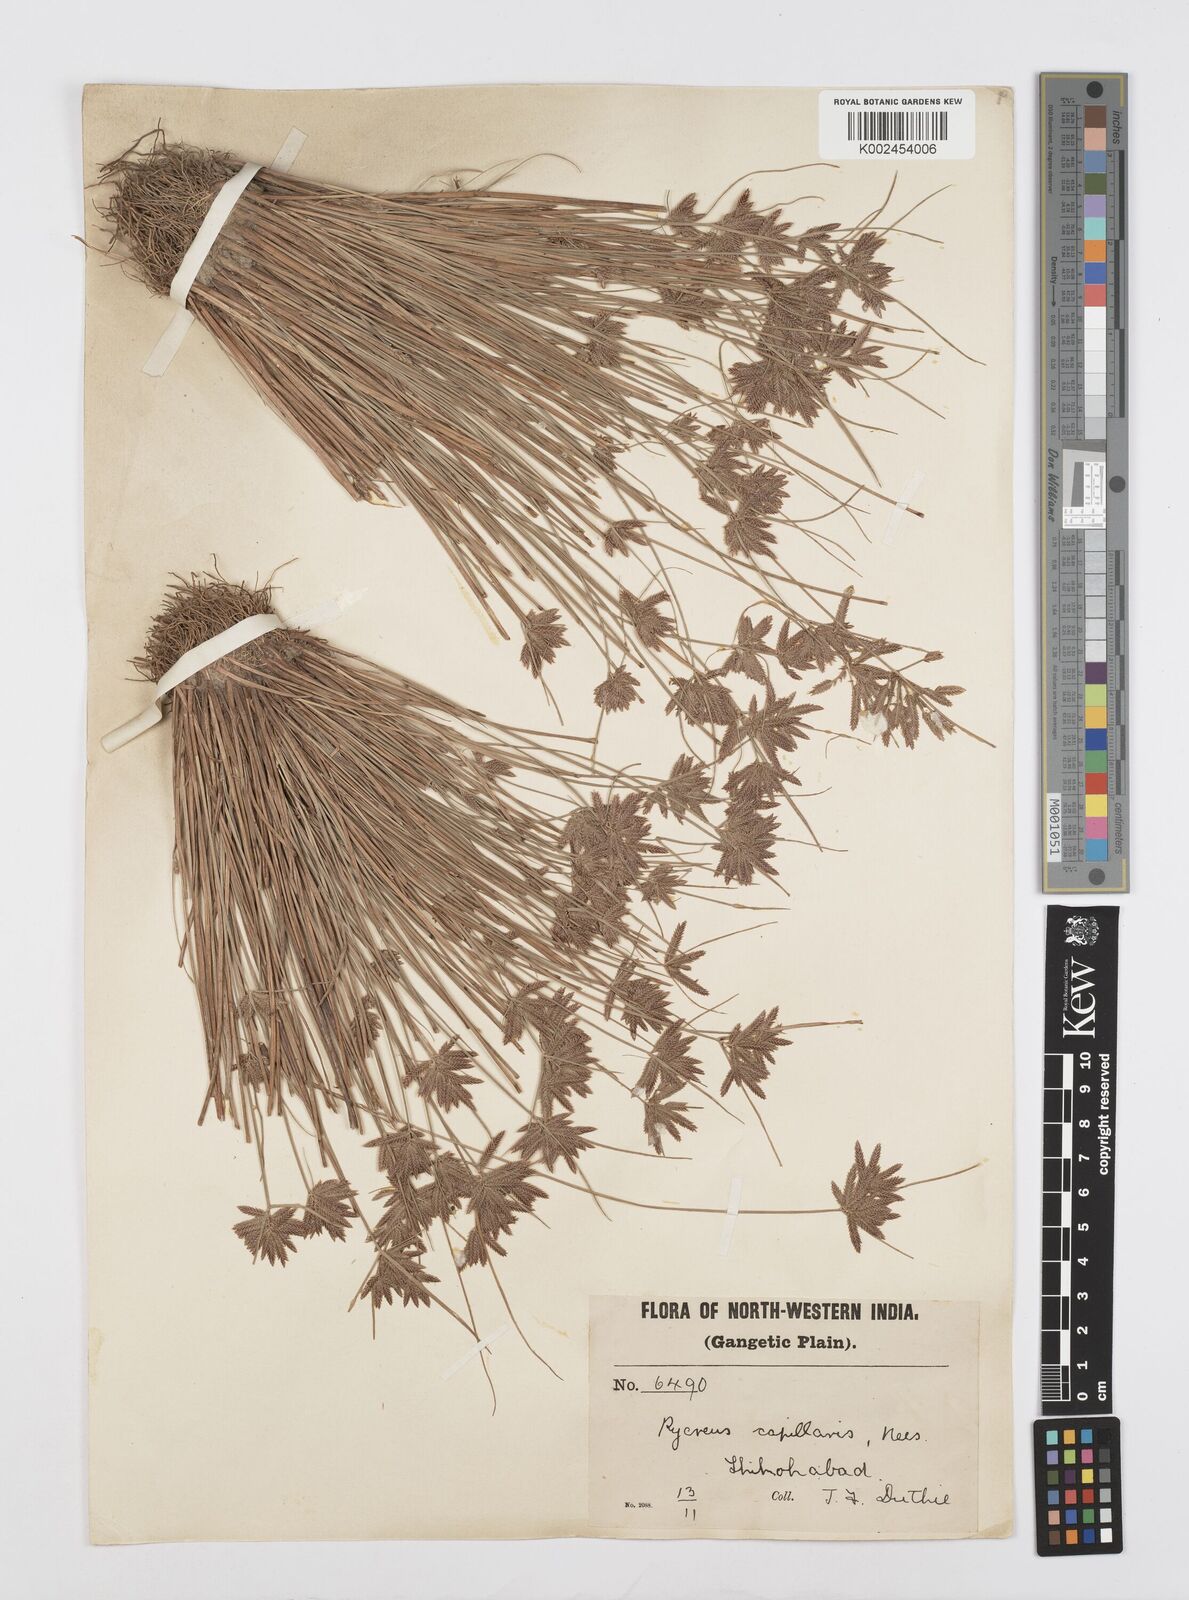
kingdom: Plantae
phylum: Tracheophyta
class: Liliopsida
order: Poales
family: Cyperaceae
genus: Cyperus
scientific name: Cyperus flavidus
